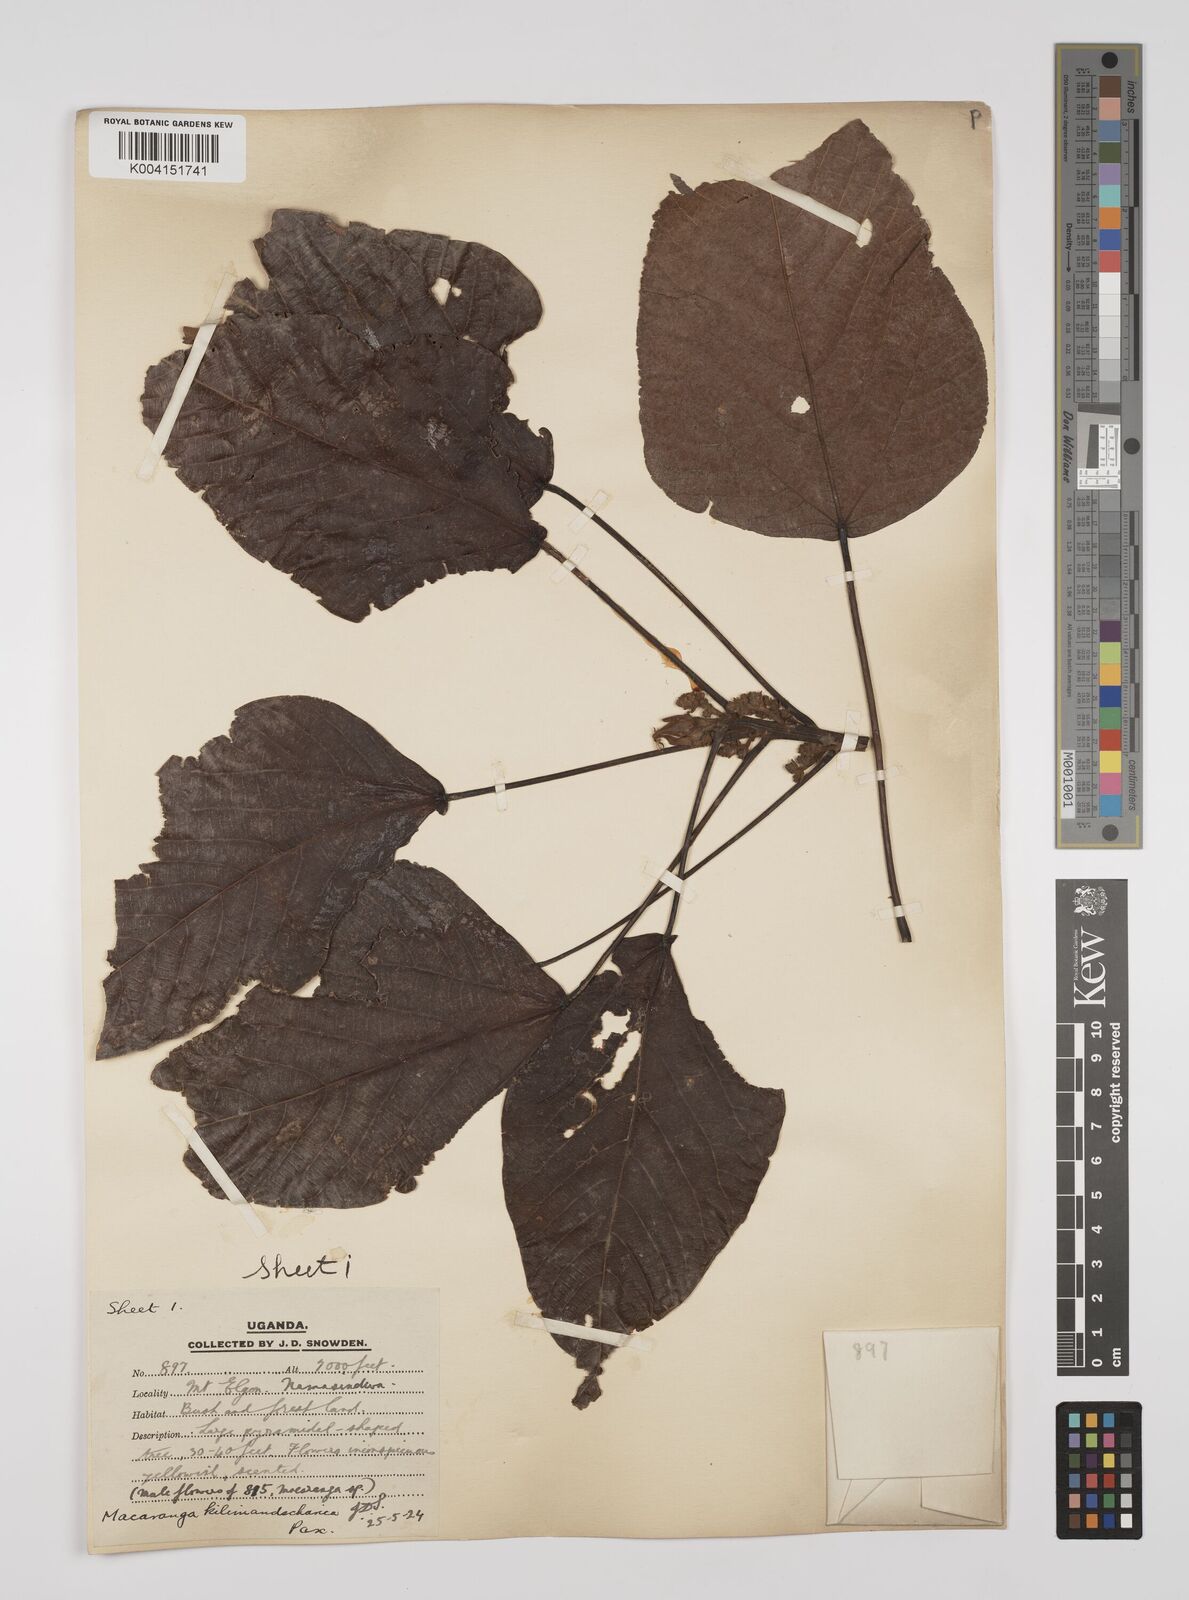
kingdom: Plantae
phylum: Tracheophyta
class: Magnoliopsida
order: Malpighiales
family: Euphorbiaceae
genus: Macaranga
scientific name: Macaranga kilimandscharica
